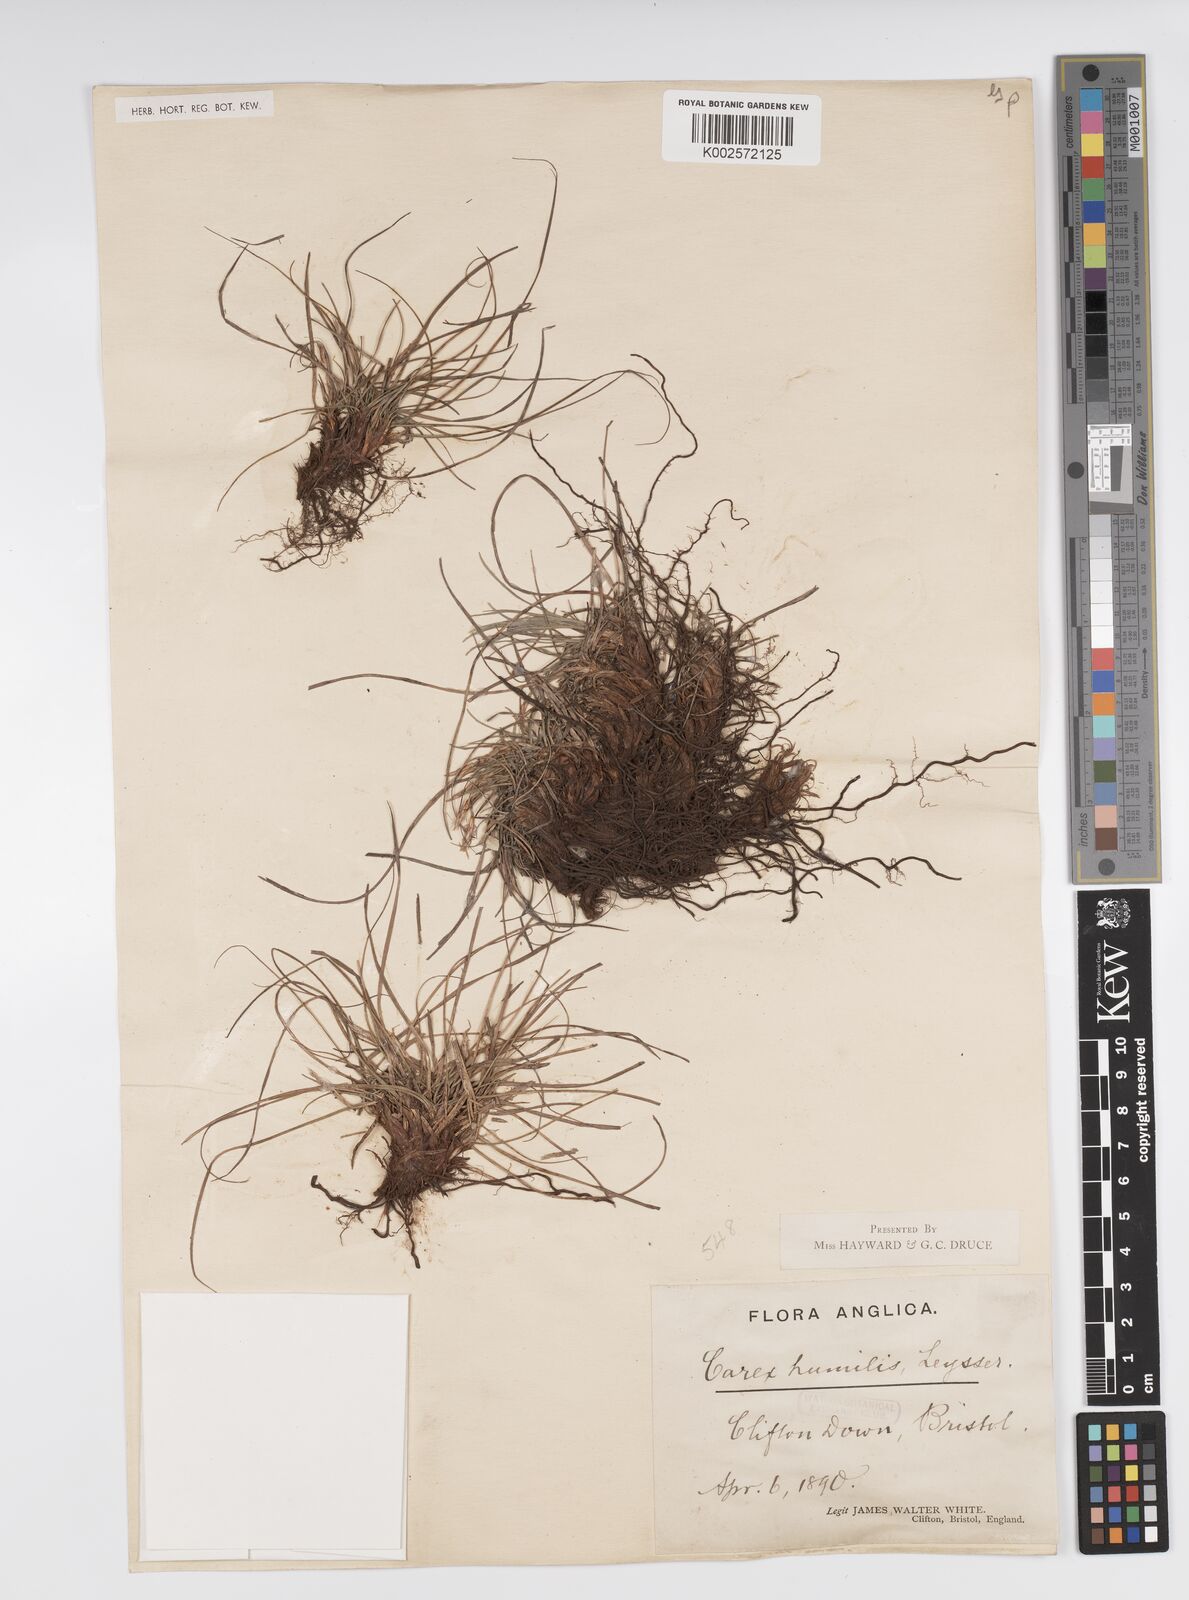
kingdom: Plantae
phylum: Tracheophyta
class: Liliopsida
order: Poales
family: Cyperaceae
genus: Carex
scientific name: Carex humilis
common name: Dwarf sedge
